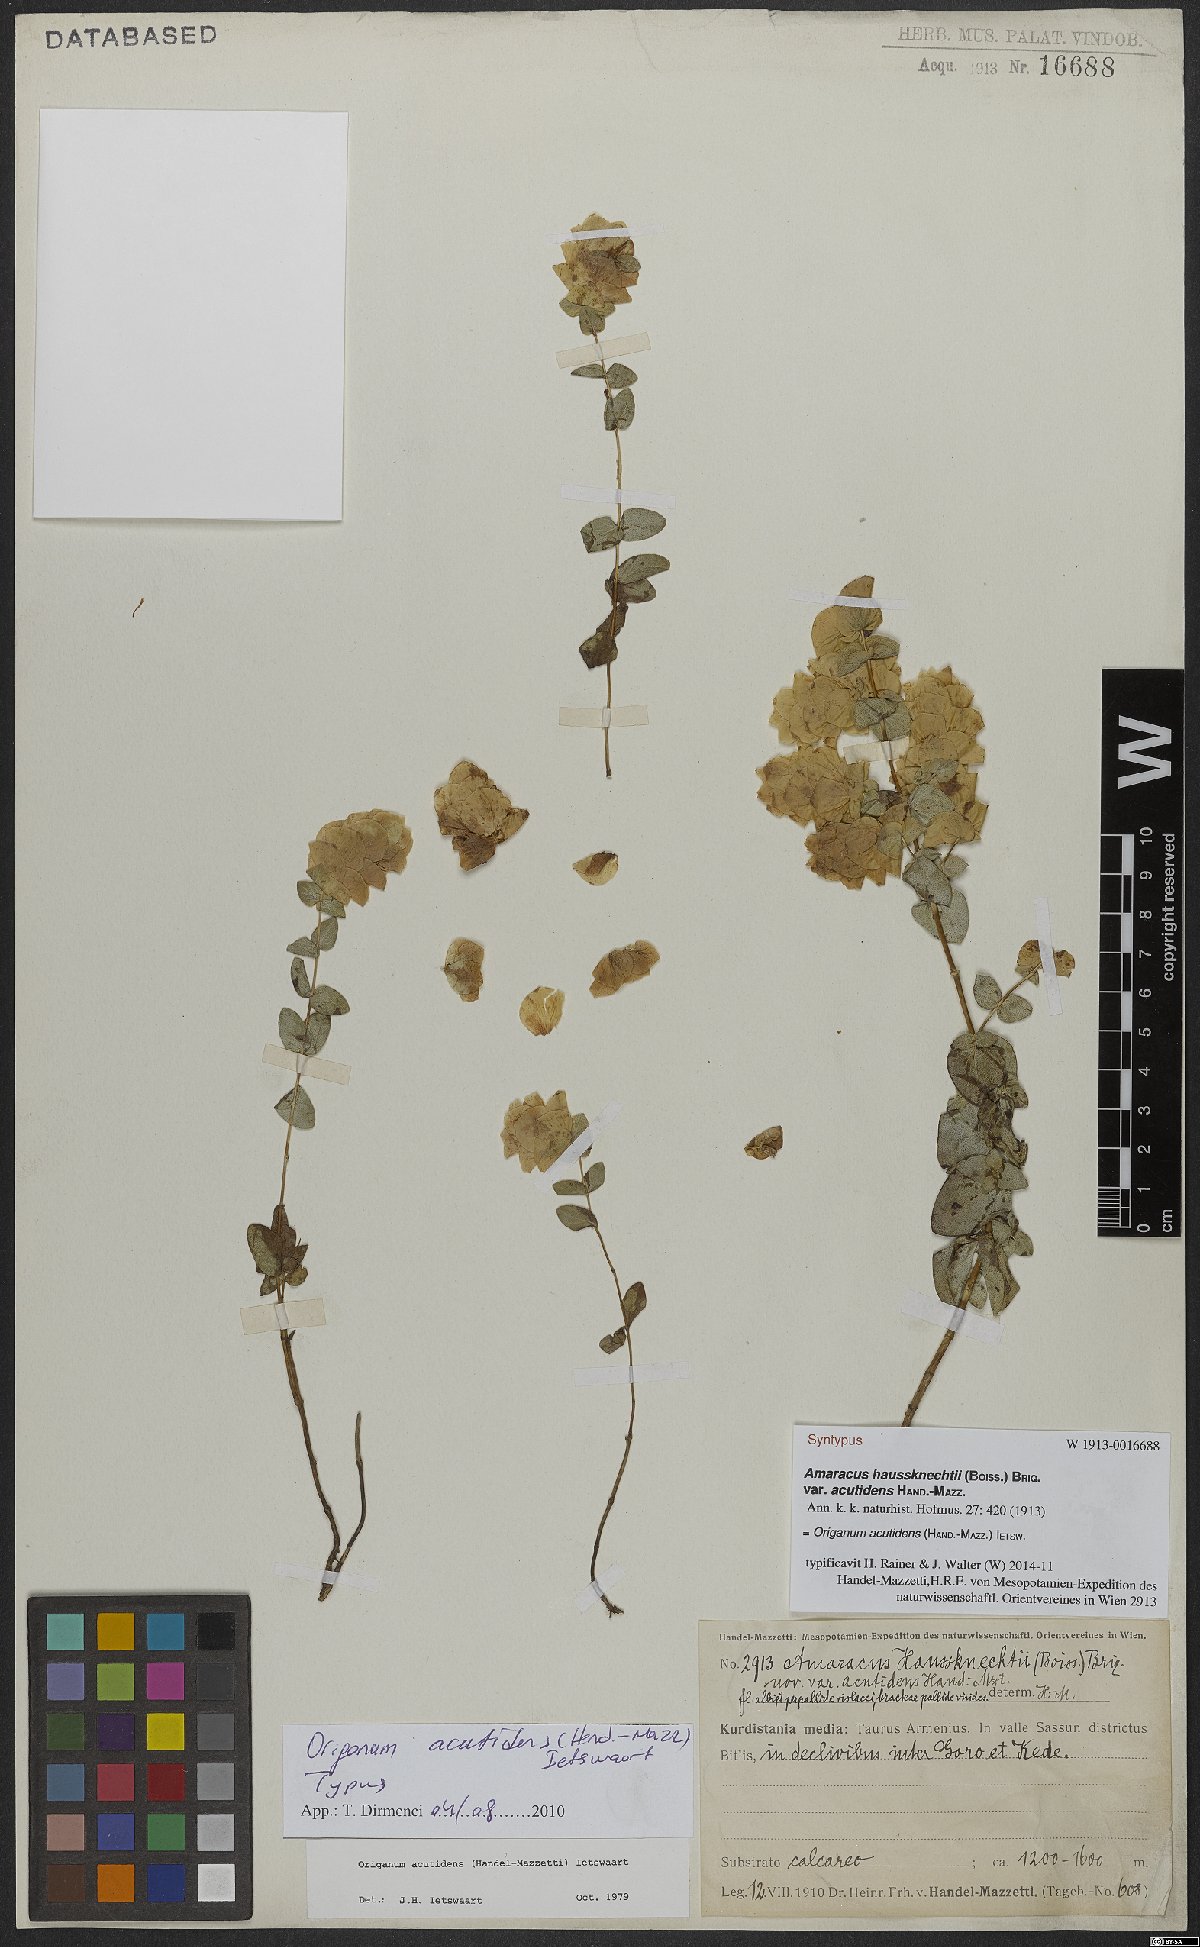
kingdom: Plantae
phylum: Tracheophyta
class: Magnoliopsida
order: Lamiales
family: Lamiaceae
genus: Origanum
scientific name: Origanum acutidens
